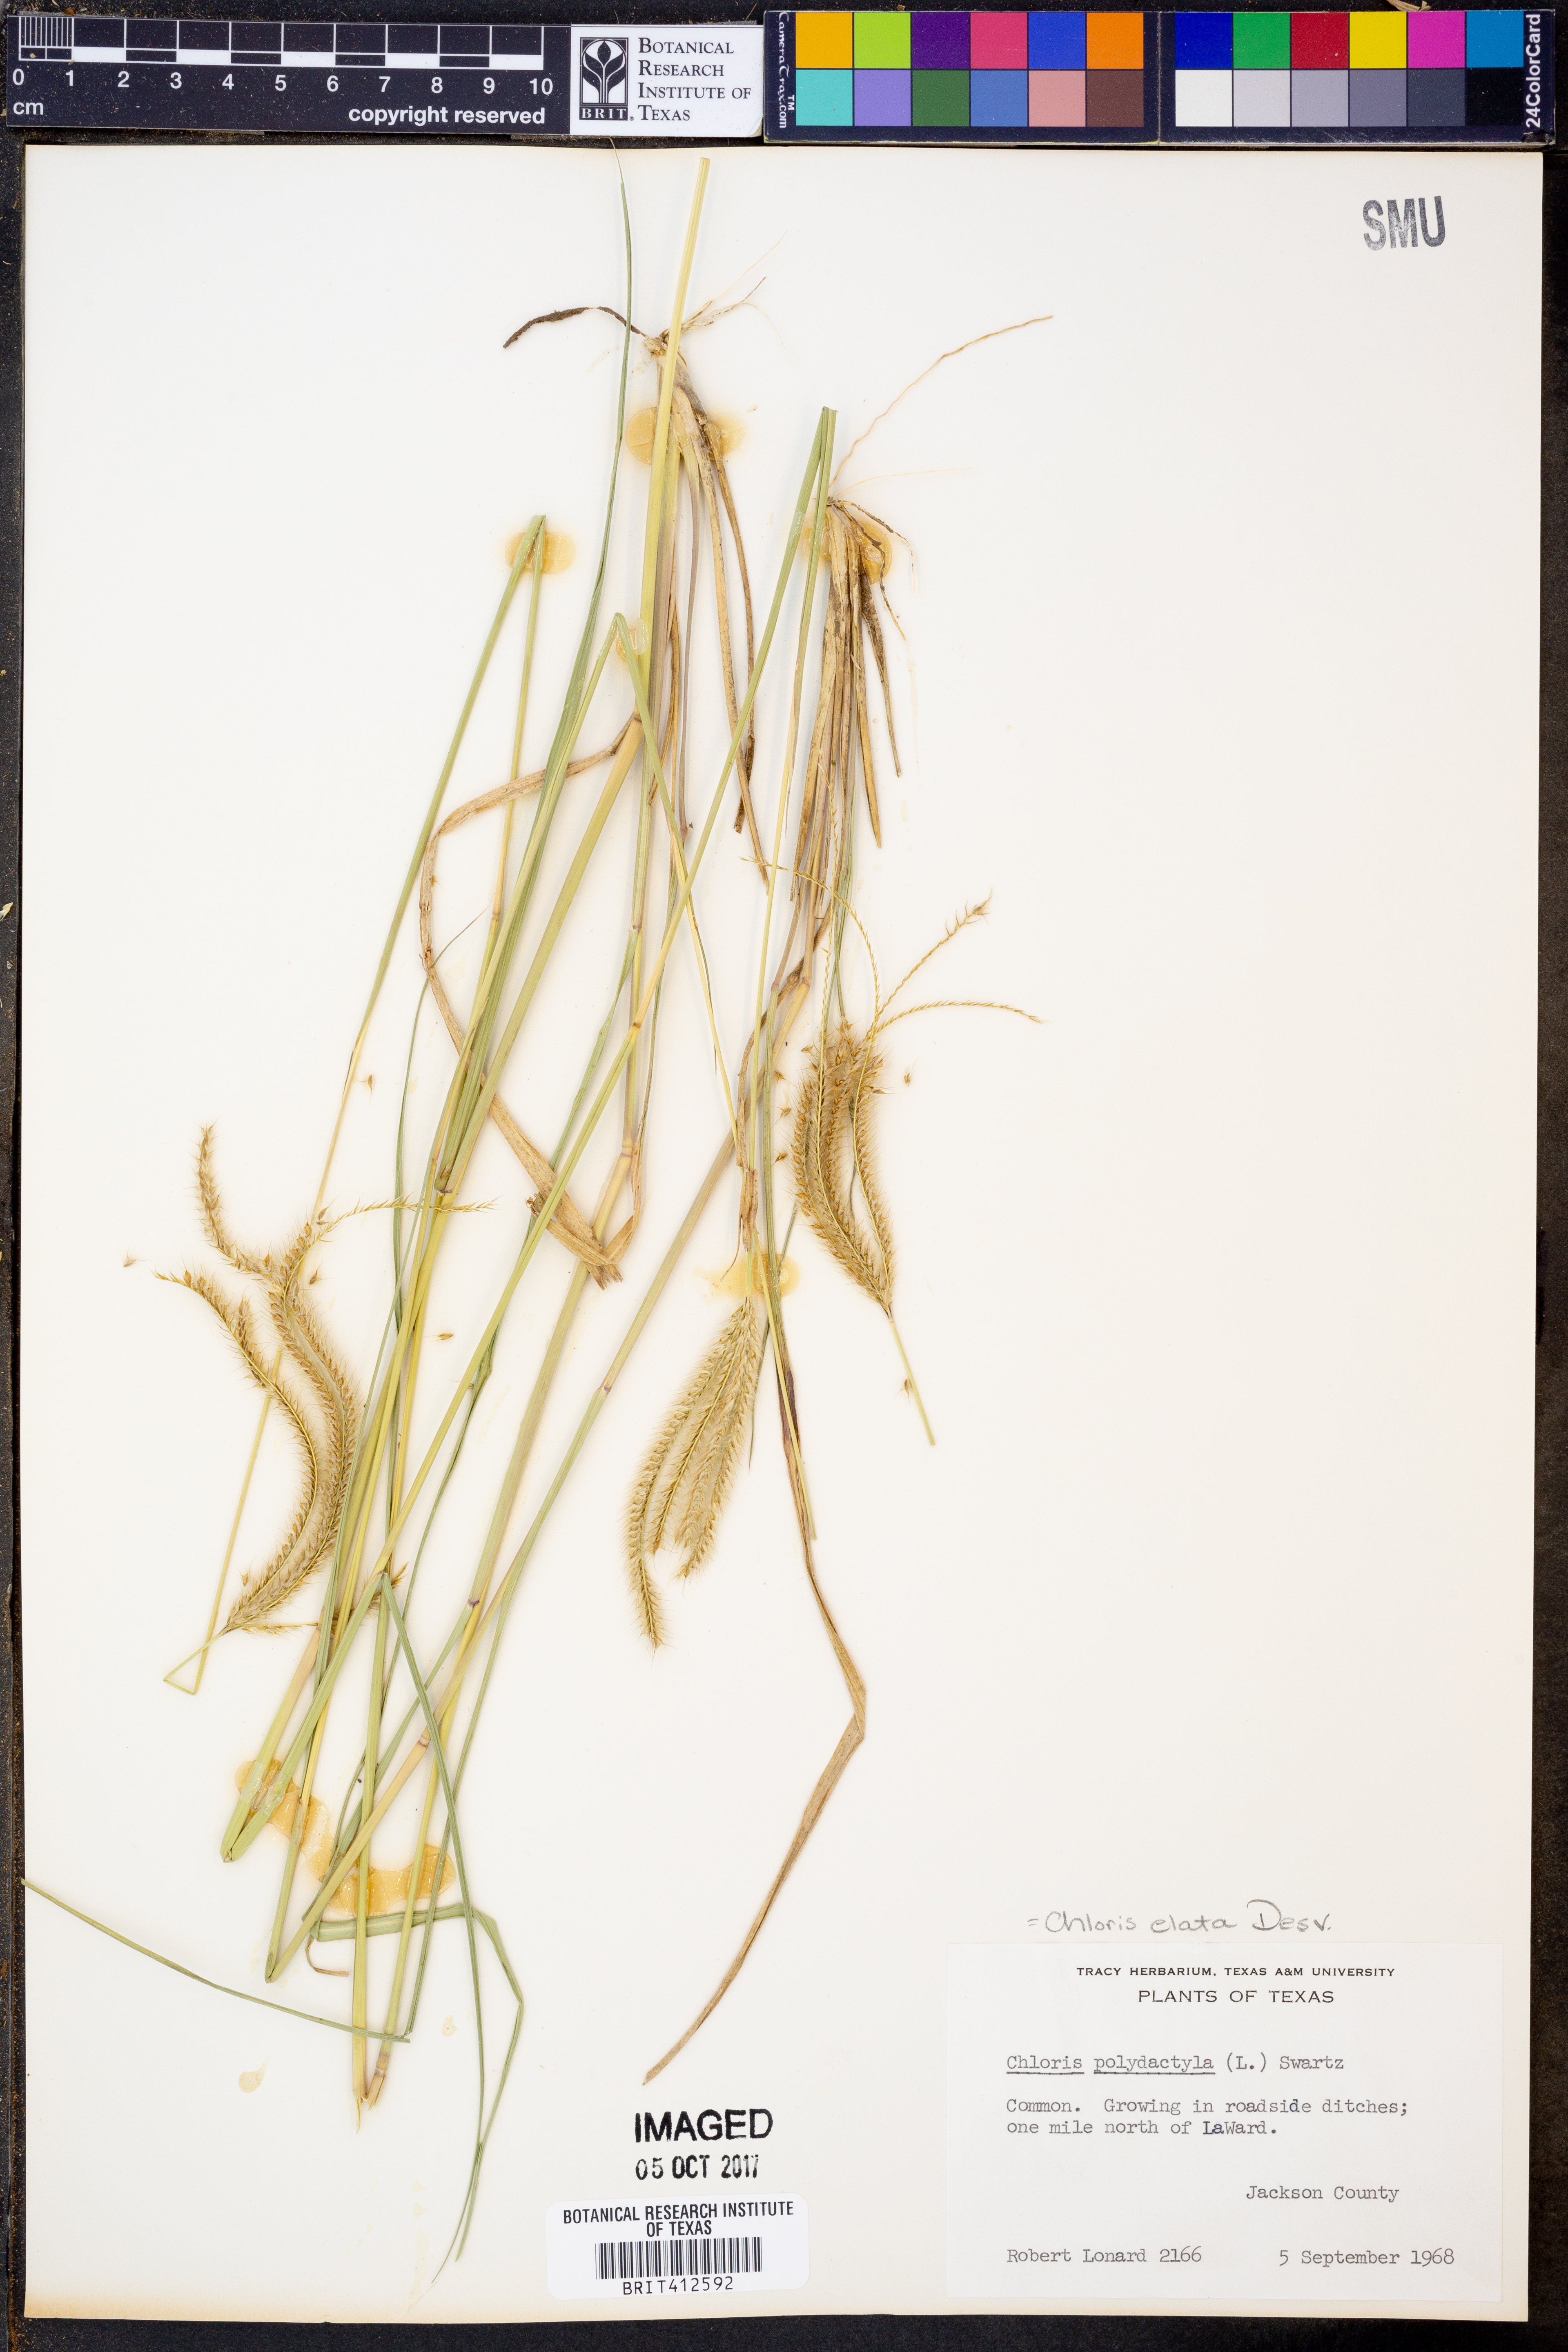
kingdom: Plantae
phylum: Tracheophyta
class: Liliopsida
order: Poales
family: Poaceae
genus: Stapfochloa
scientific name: Stapfochloa elata
